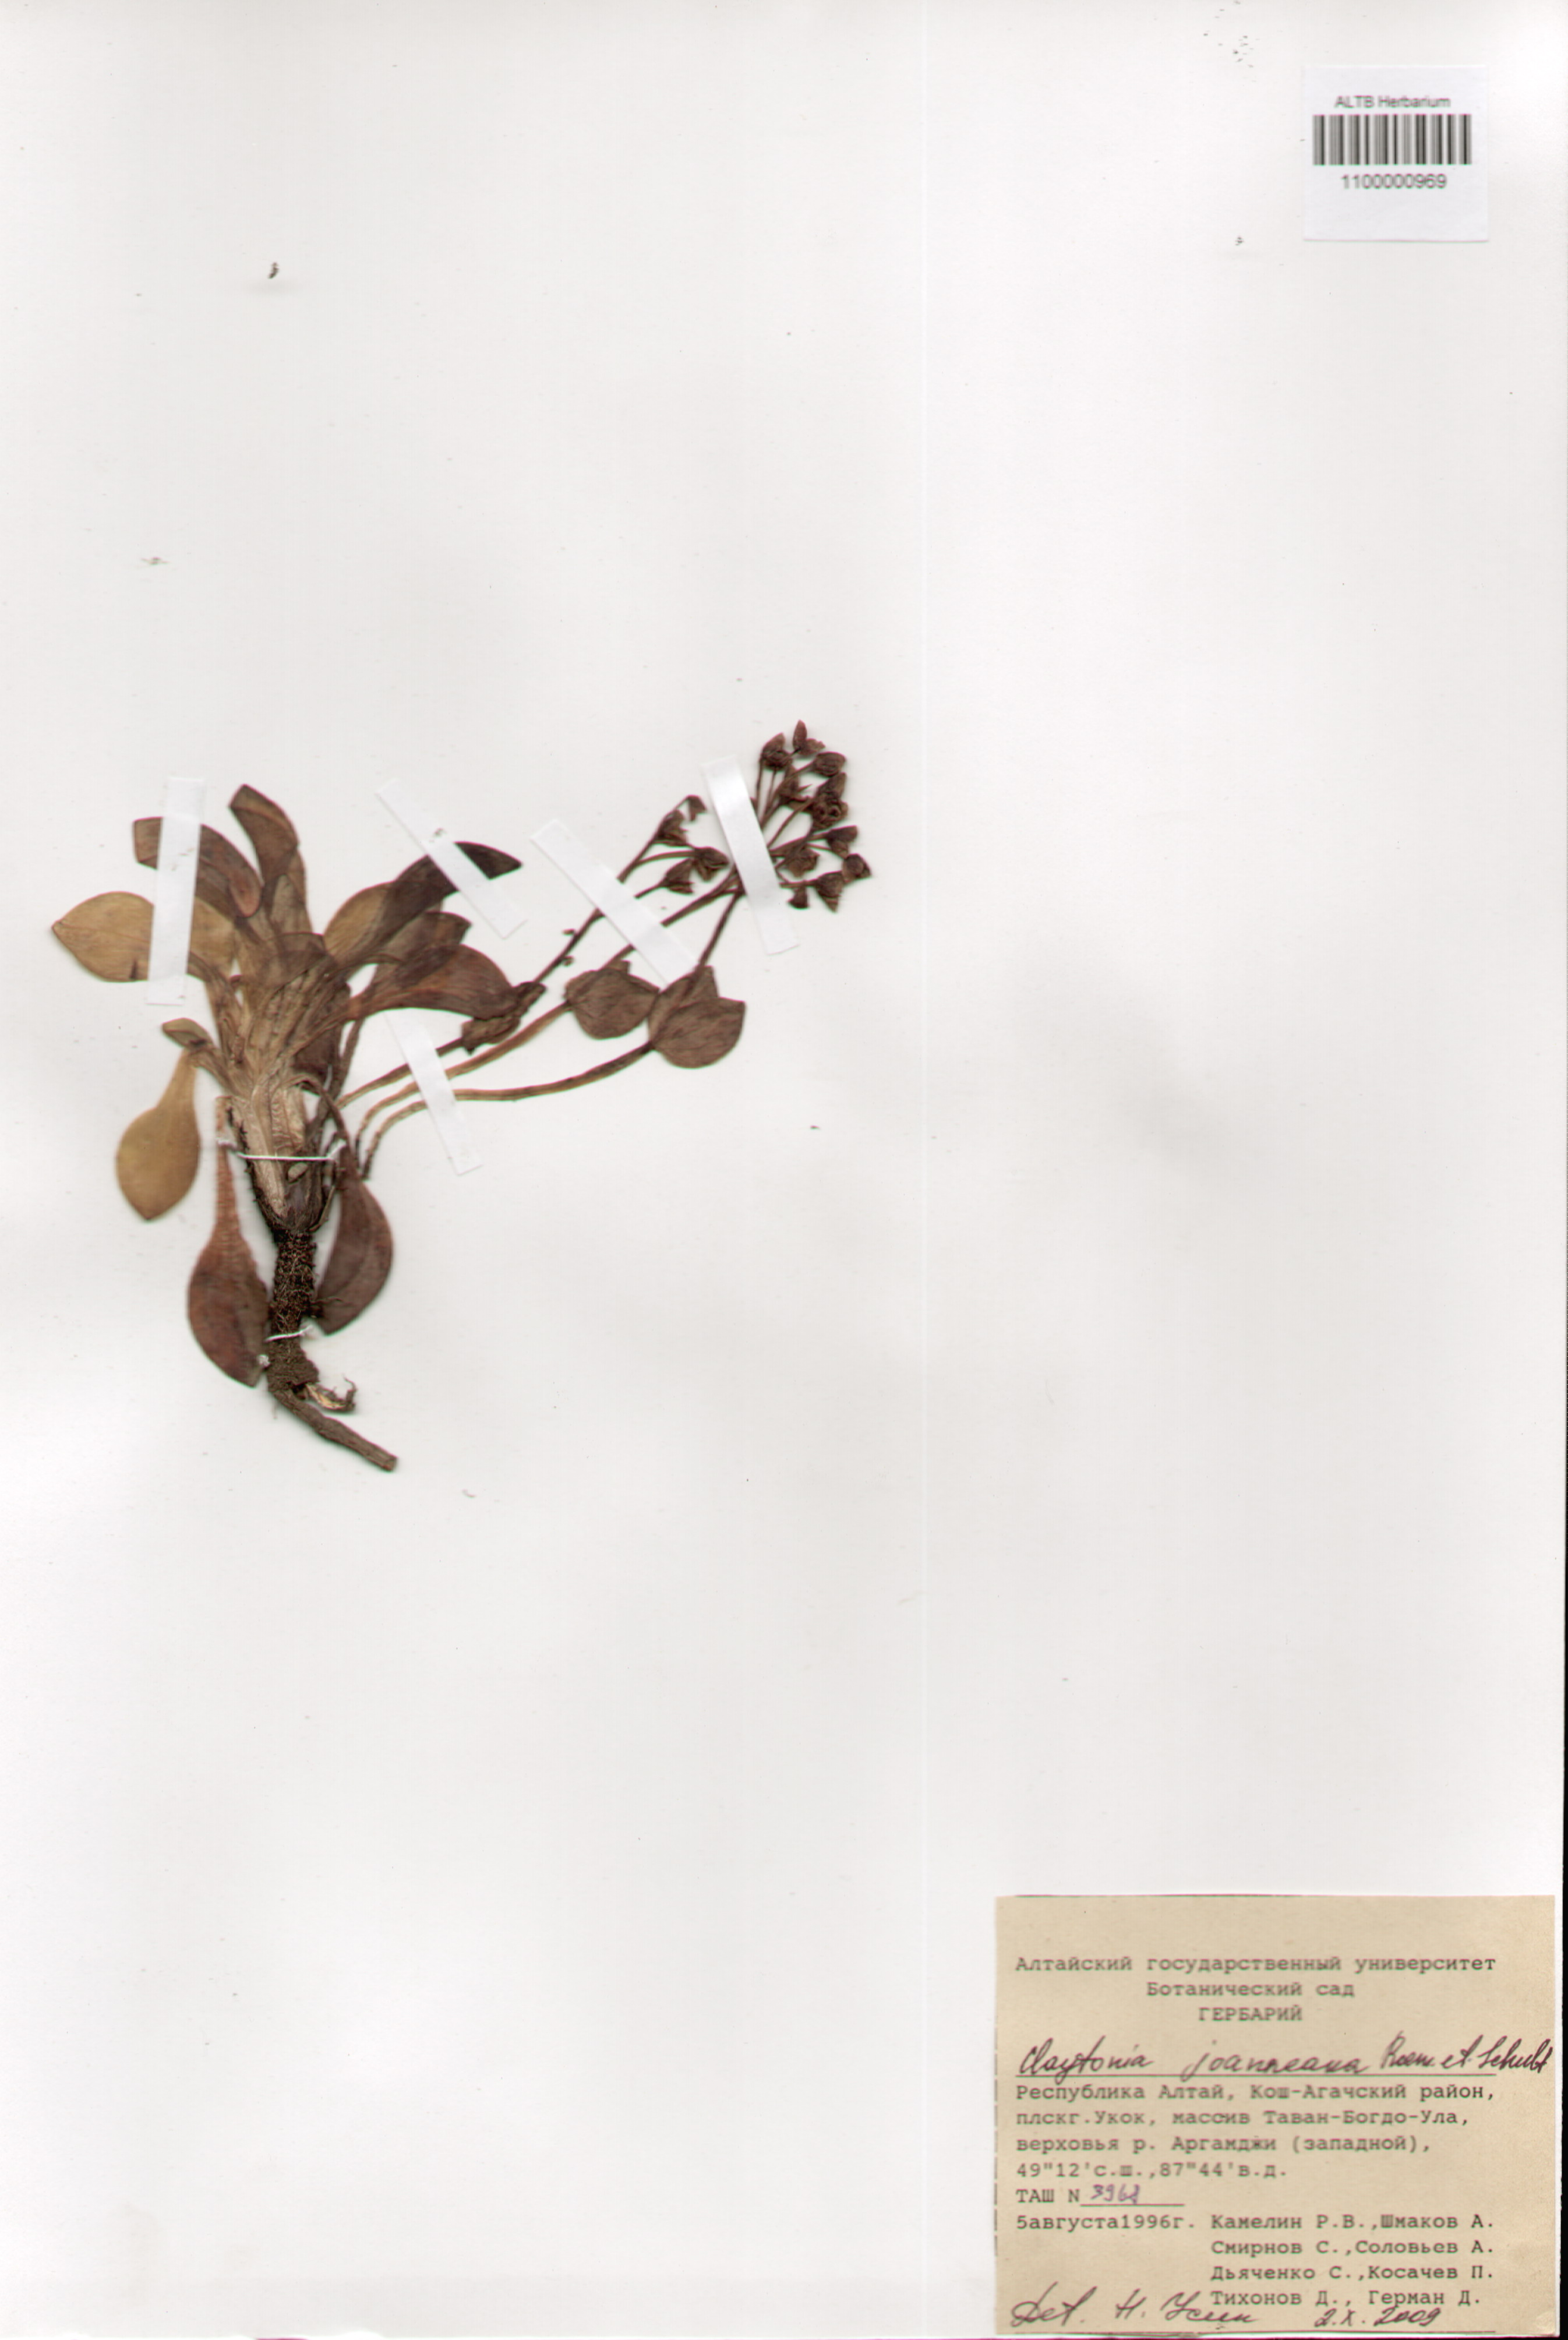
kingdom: Plantae
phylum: Tracheophyta
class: Magnoliopsida
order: Caryophyllales
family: Montiaceae
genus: Claytonia
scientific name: Claytonia joanneana
